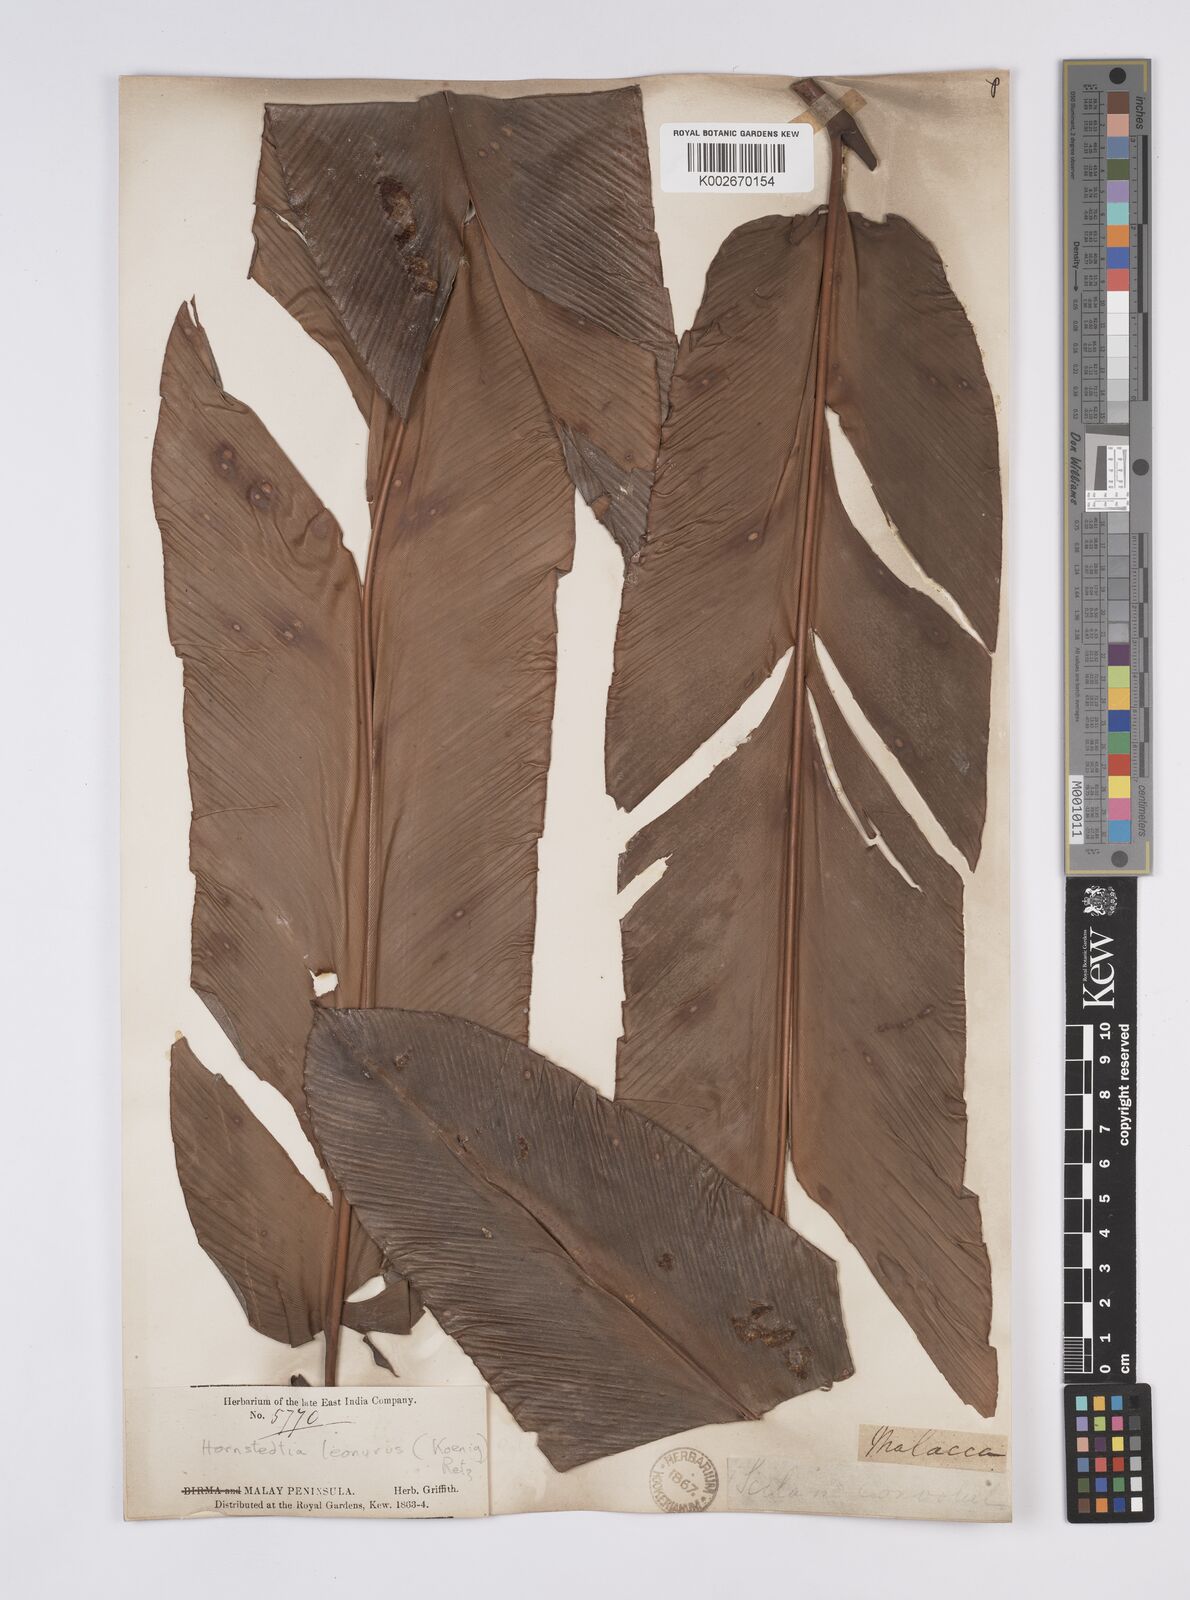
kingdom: Plantae
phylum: Tracheophyta
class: Liliopsida
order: Zingiberales
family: Zingiberaceae
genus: Hornstedtia
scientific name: Hornstedtia leonurus
